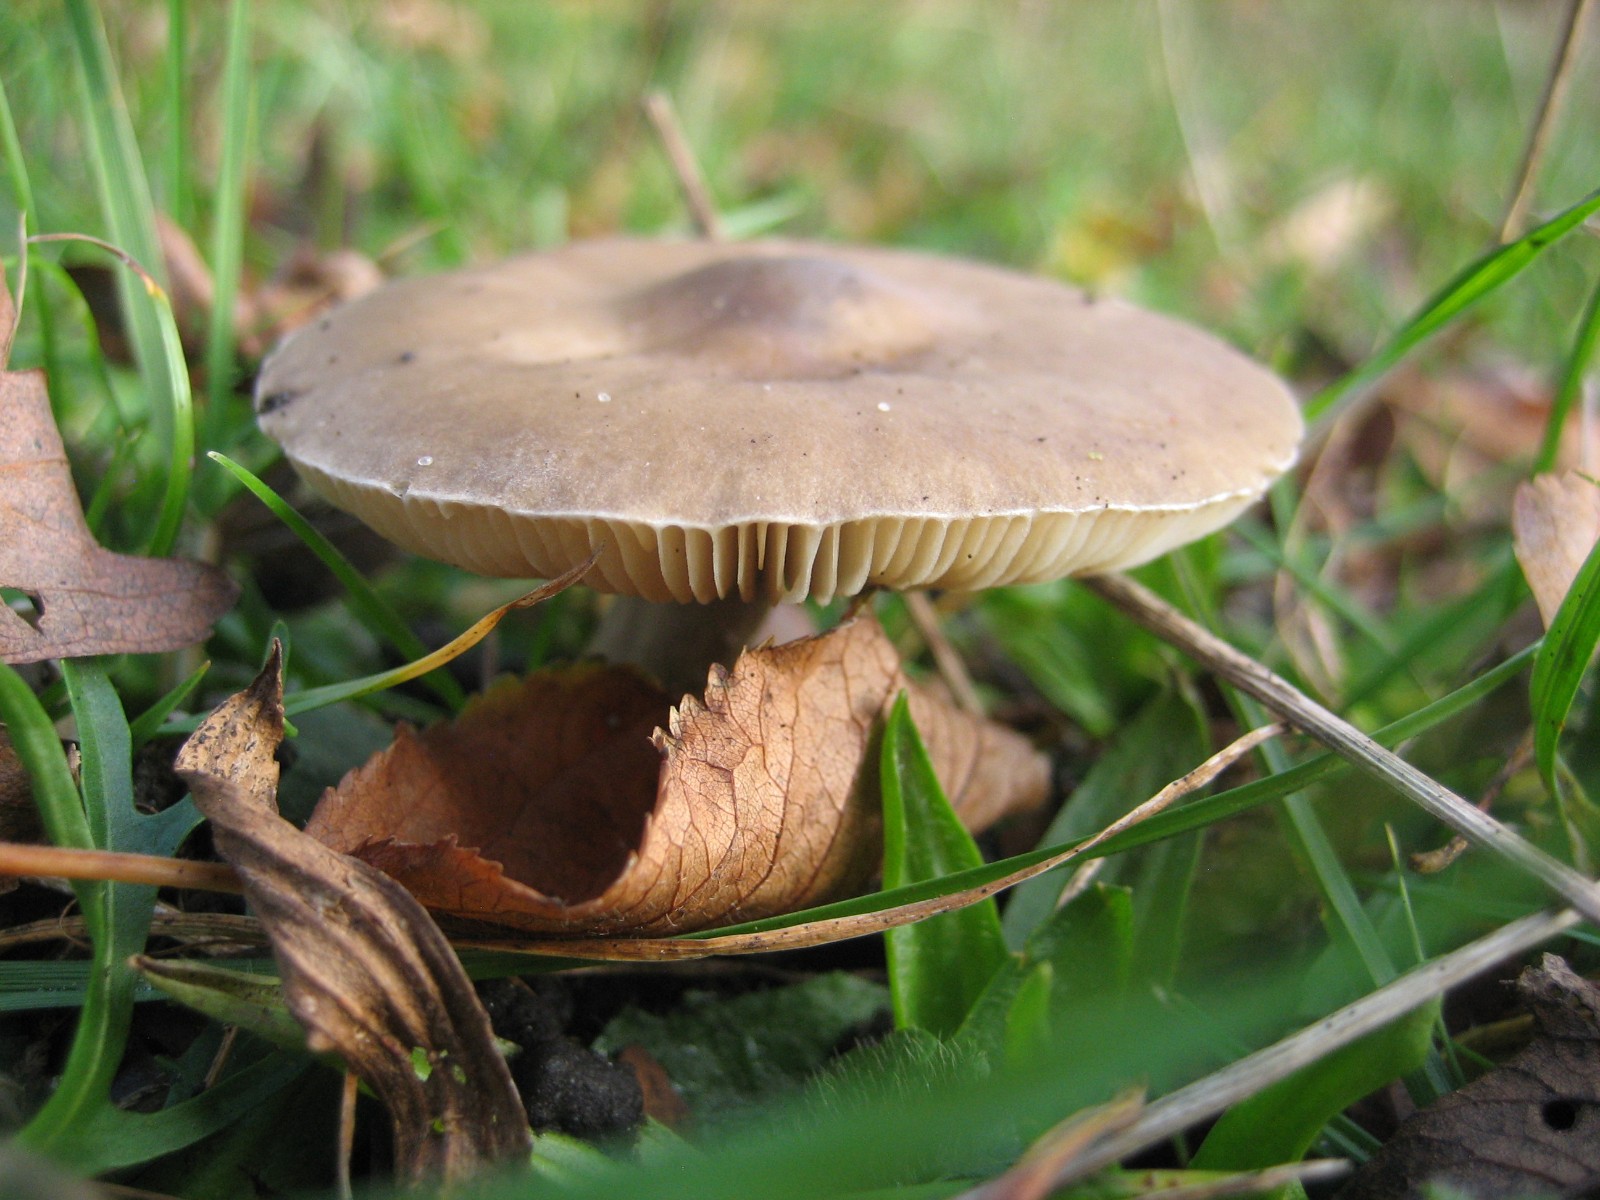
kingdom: Fungi
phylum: Basidiomycota
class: Agaricomycetes
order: Agaricales
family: Tricholomataceae
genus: Melanoleuca
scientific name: Melanoleuca
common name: munkehat
